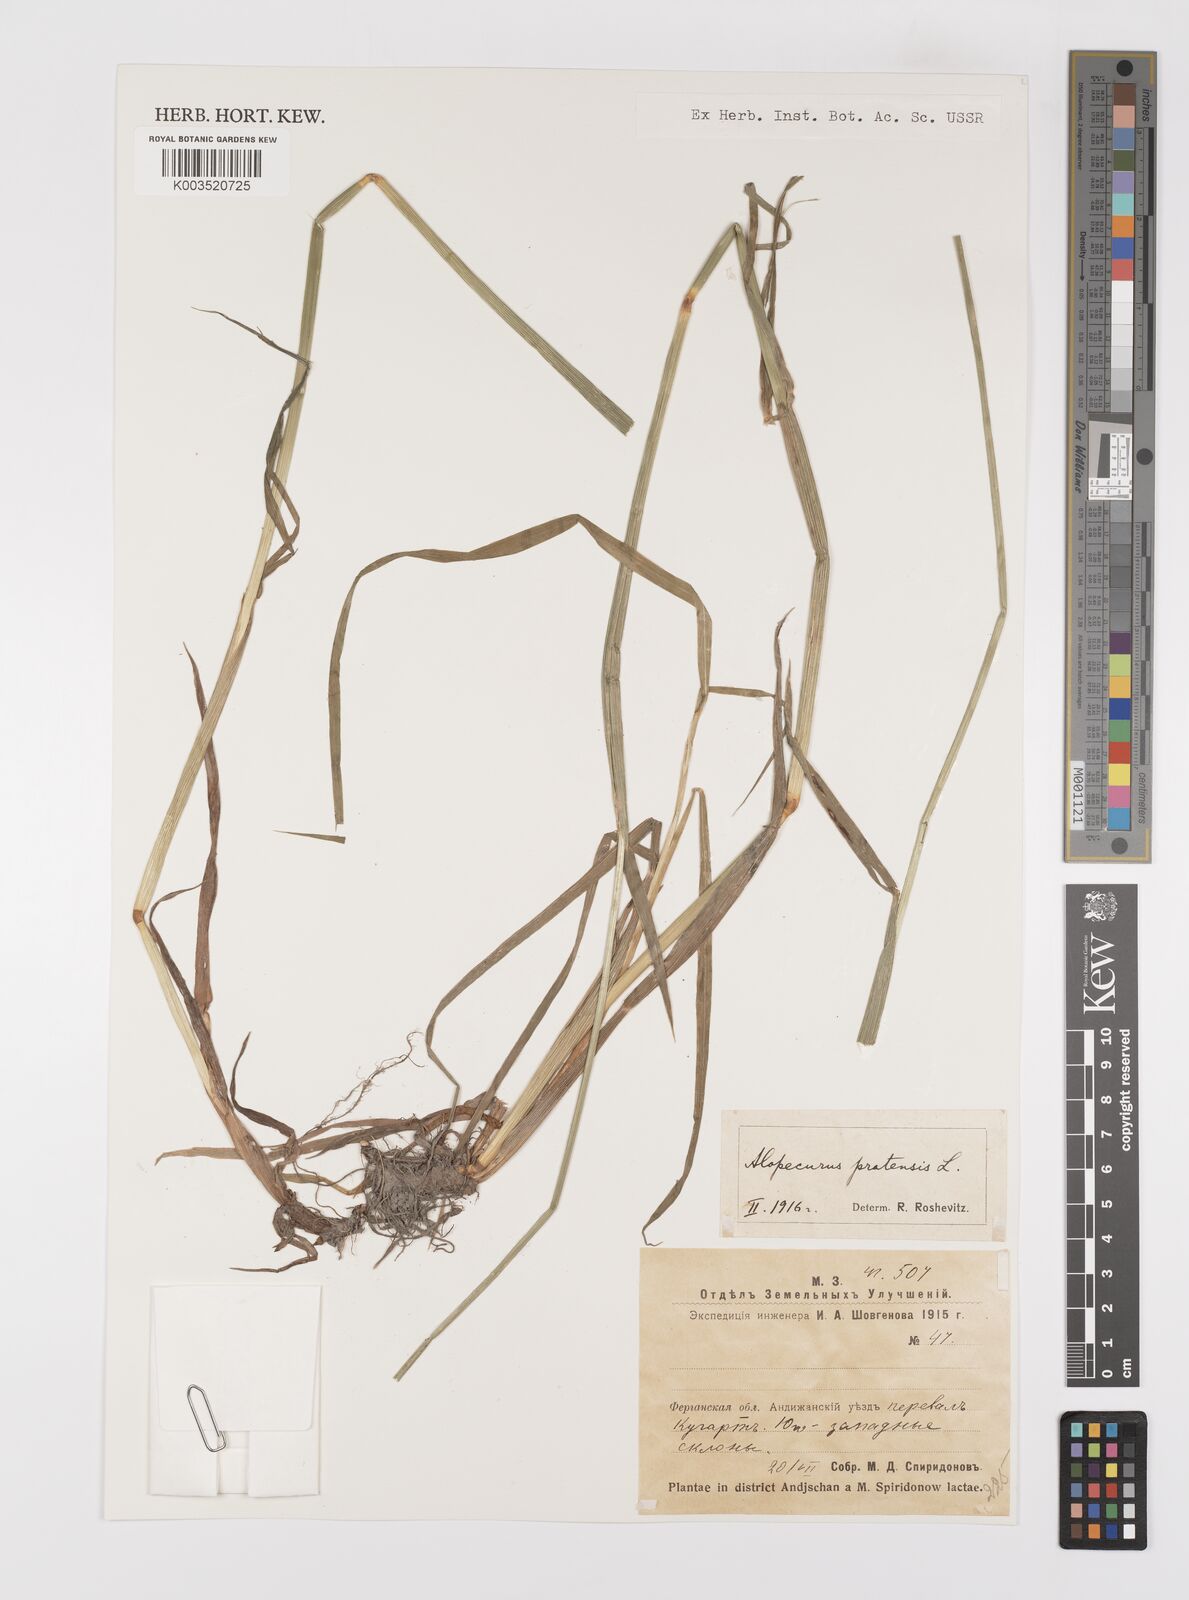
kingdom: Plantae
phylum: Tracheophyta
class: Liliopsida
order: Poales
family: Poaceae
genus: Alopecurus
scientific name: Alopecurus pratensis
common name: Meadow foxtail
